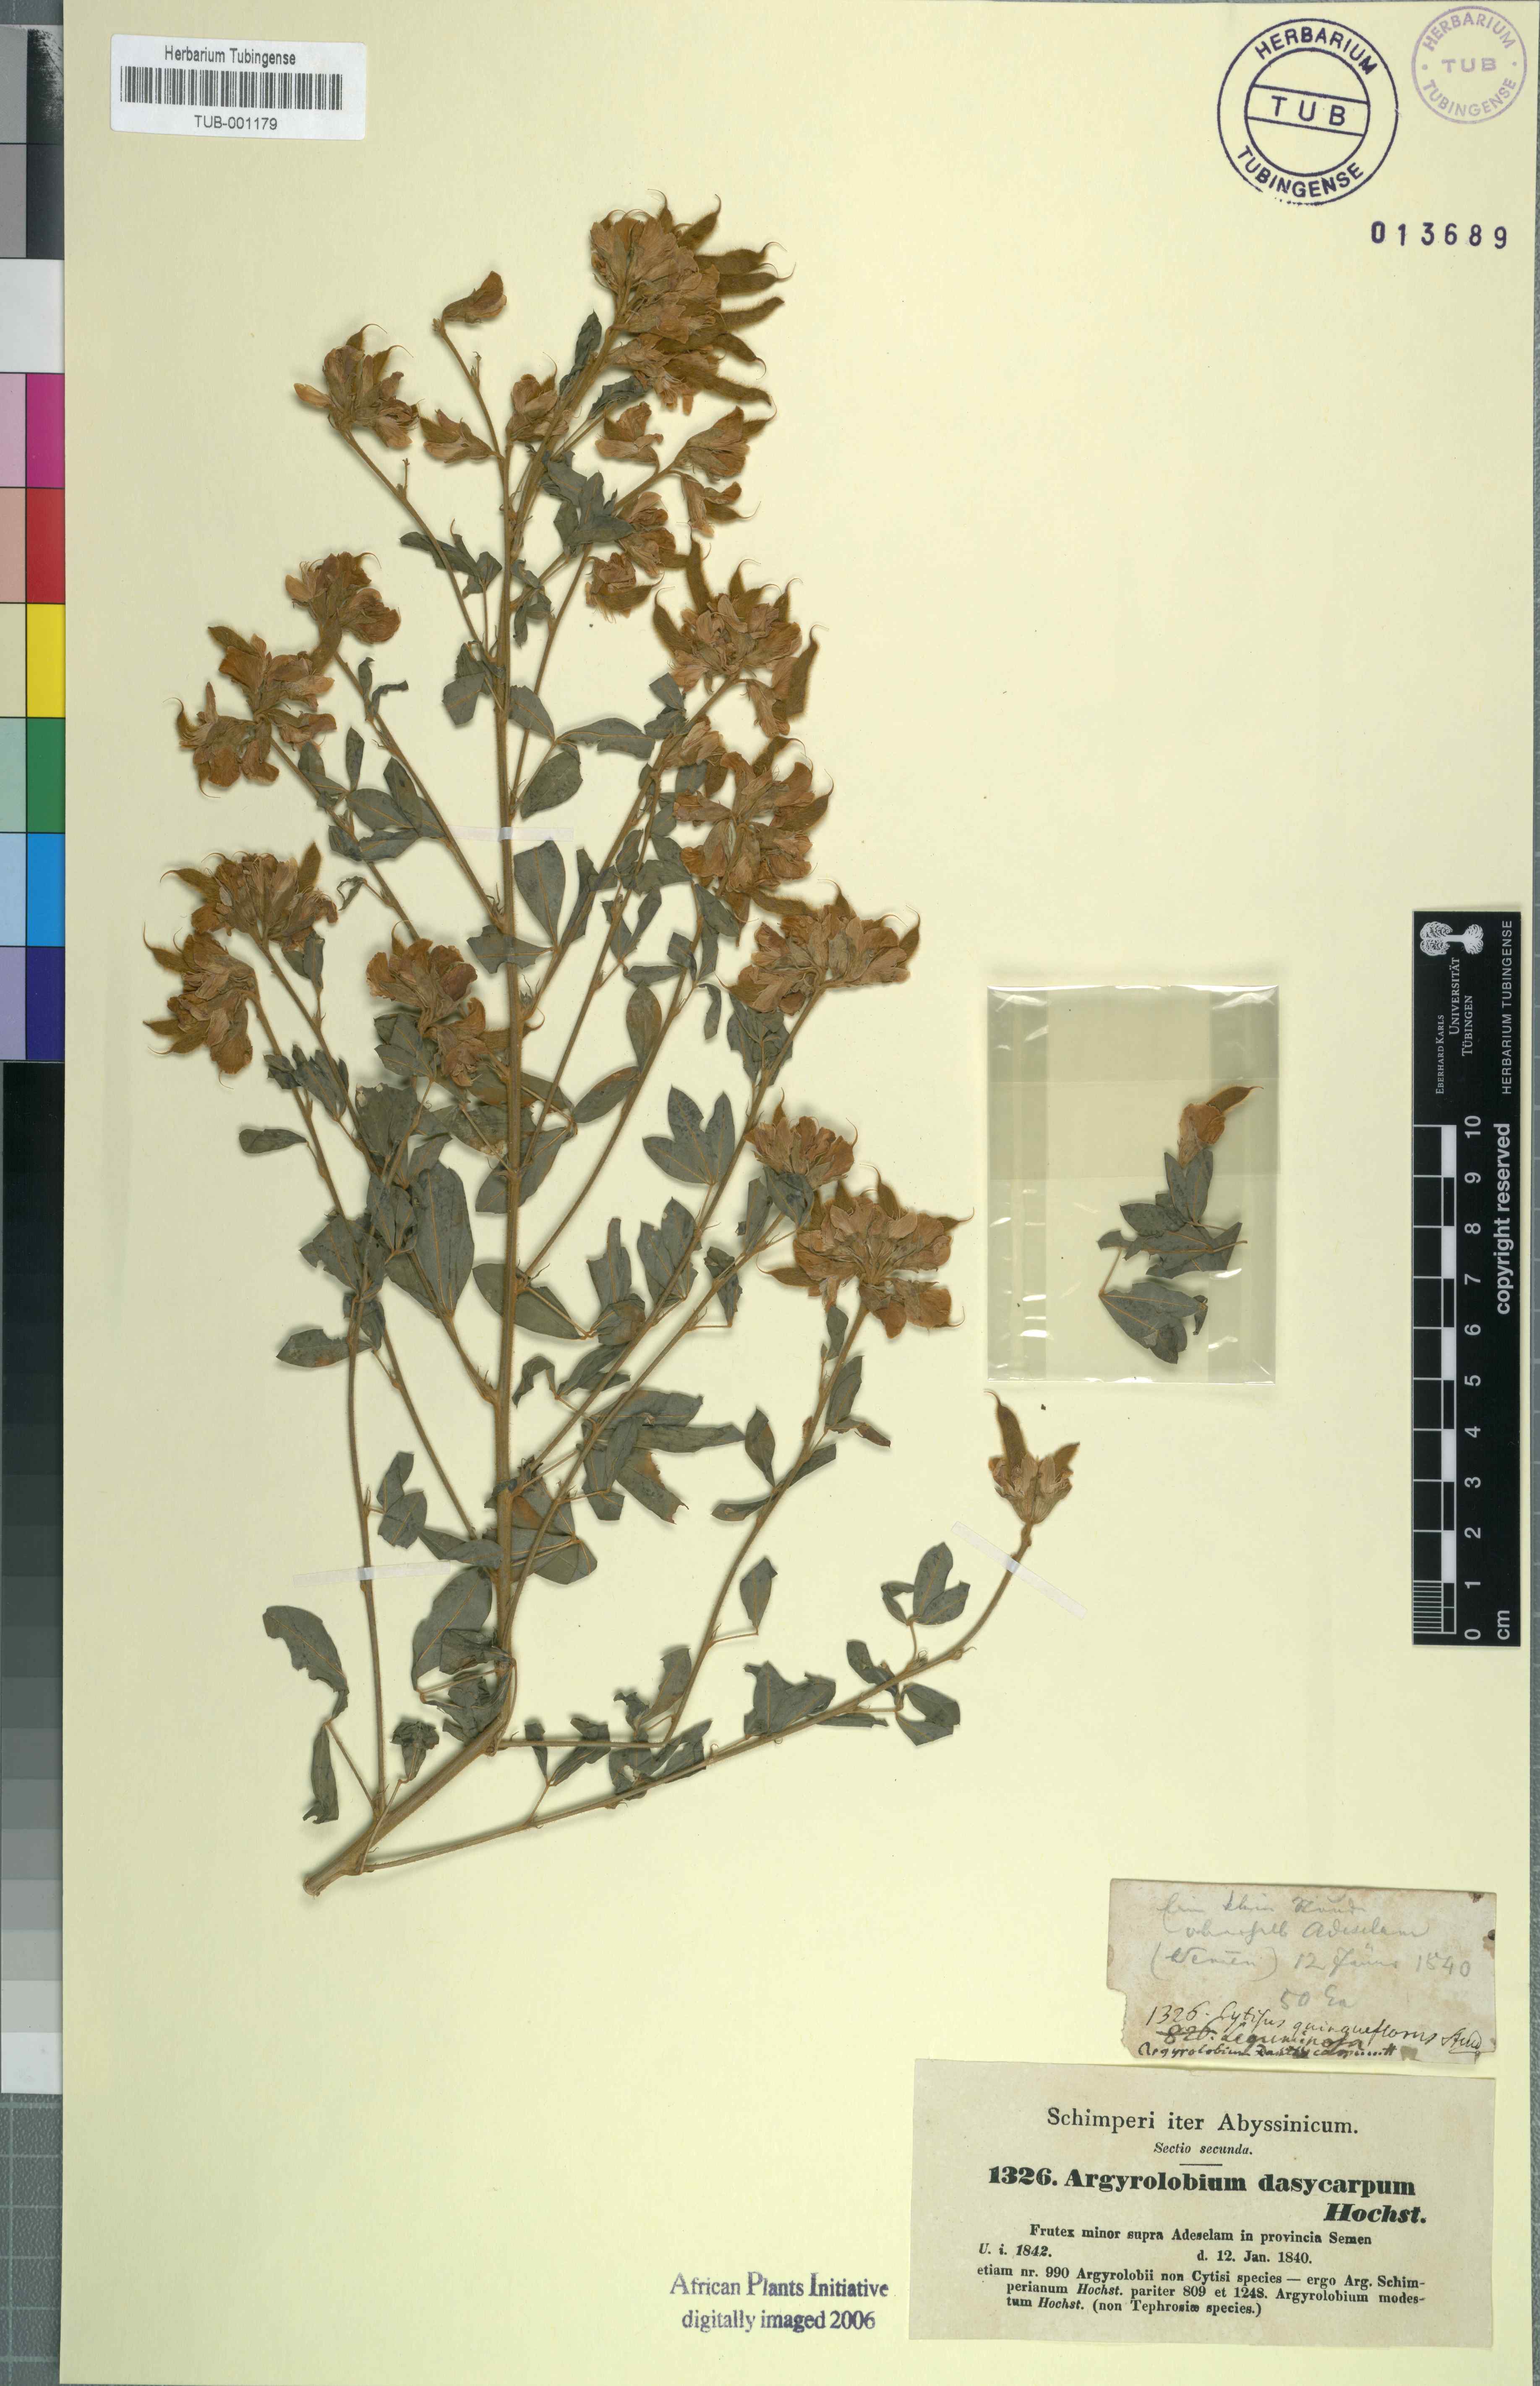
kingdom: Plantae
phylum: Tracheophyta
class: Magnoliopsida
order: Fabales
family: Fabaceae
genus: Argyrolobium
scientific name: Argyrolobium schimperianum
